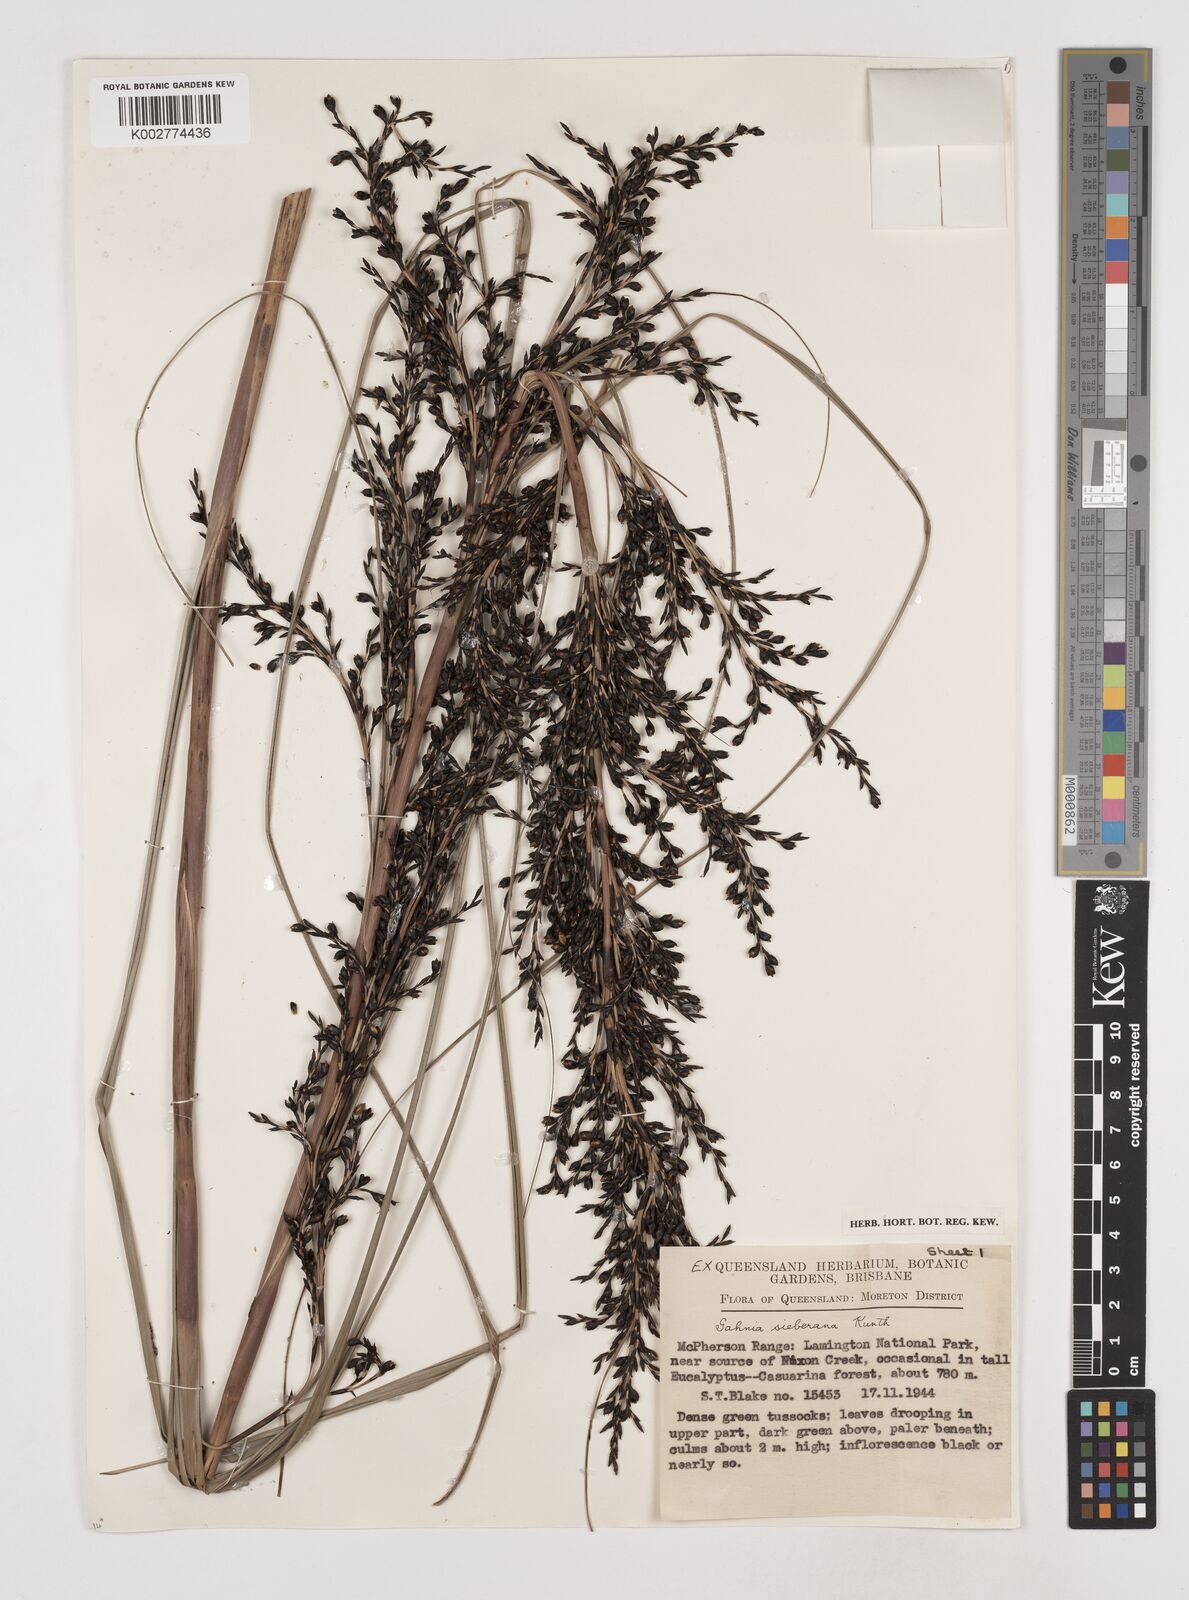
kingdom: Plantae
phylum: Tracheophyta
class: Liliopsida
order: Poales
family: Cyperaceae
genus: Gahnia
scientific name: Gahnia sieberiana
